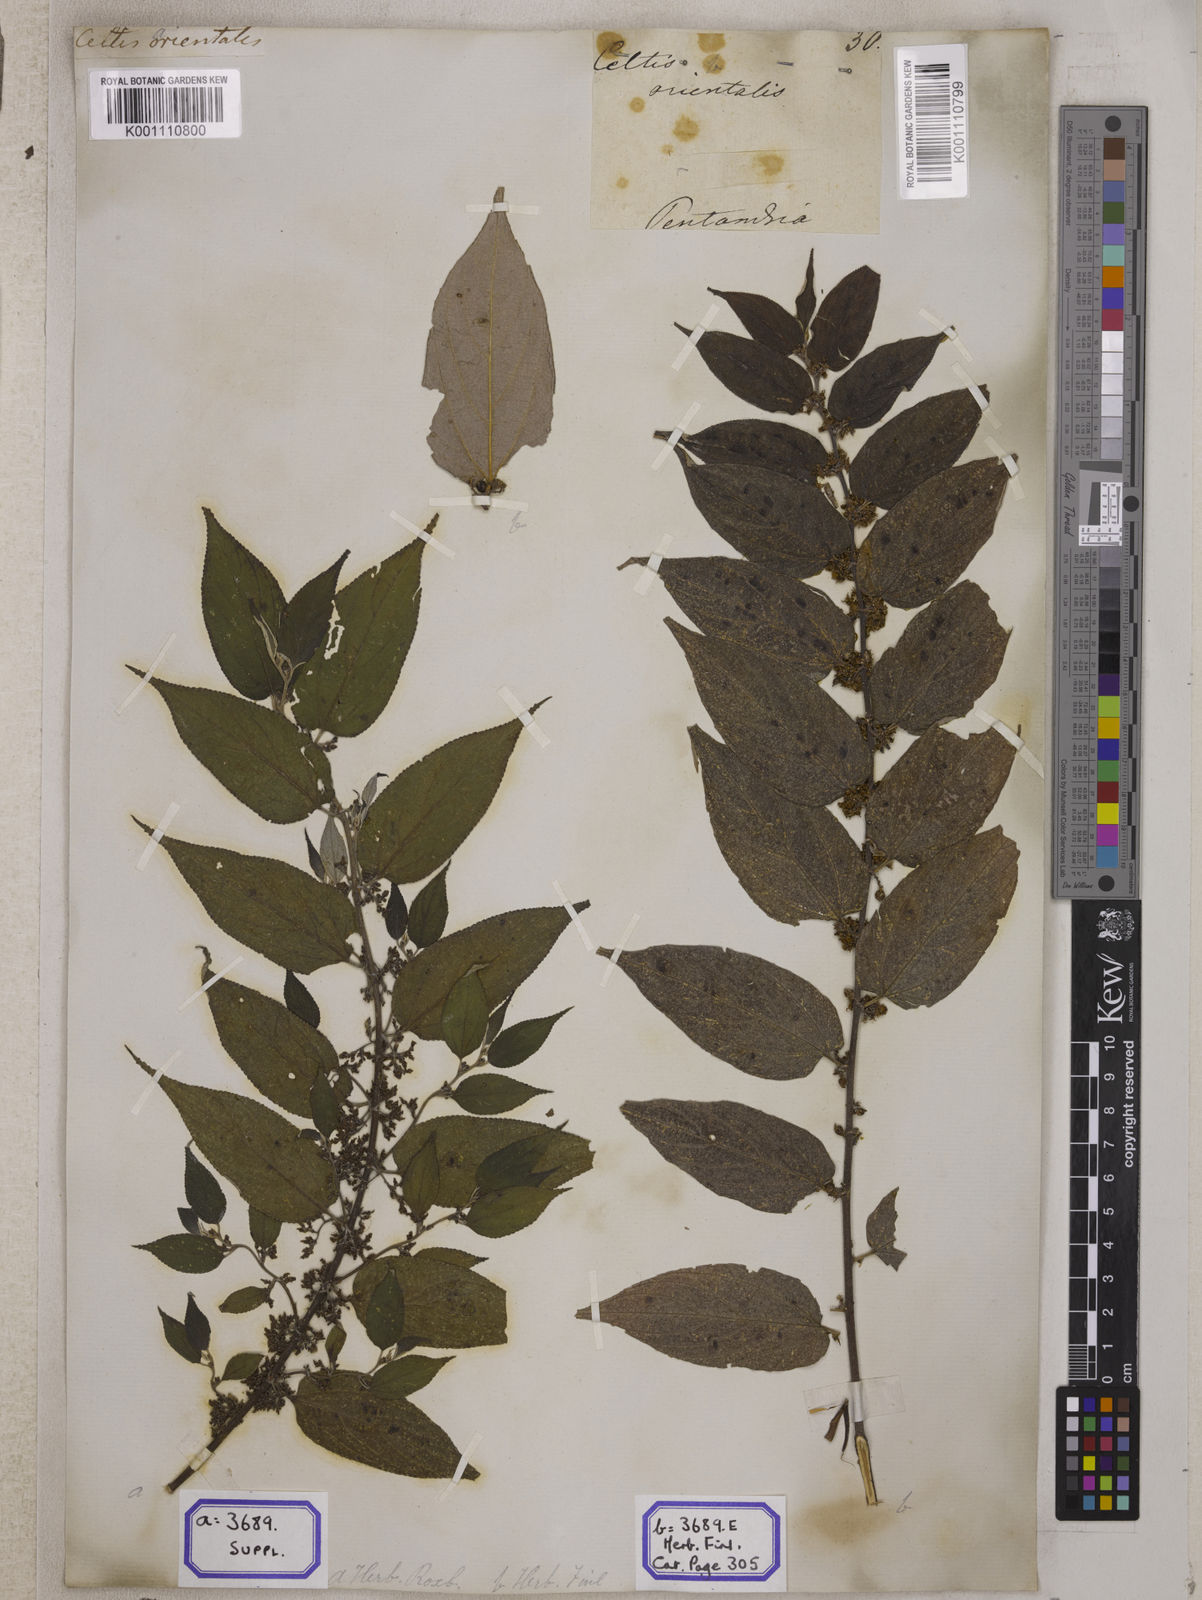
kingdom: Plantae
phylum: Tracheophyta
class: Magnoliopsida
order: Rosales
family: Cannabaceae
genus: Trema
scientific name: Trema orientale
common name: Indian charcoal tree
